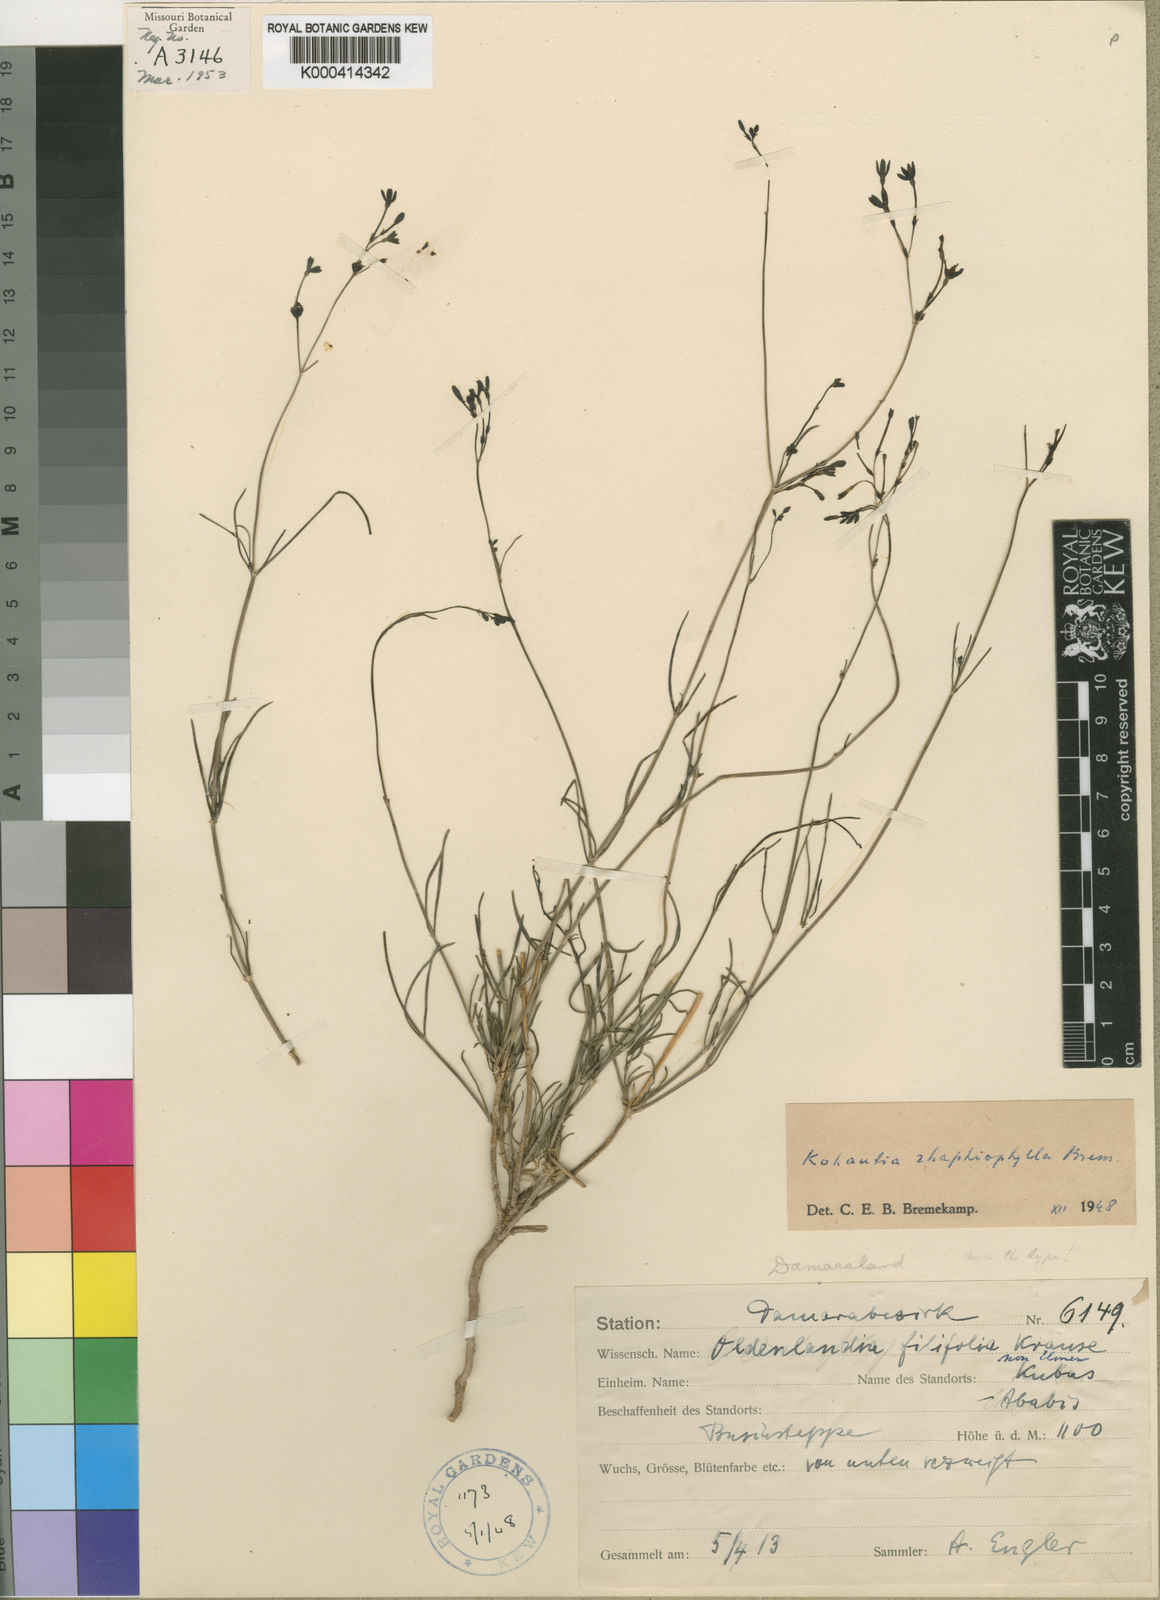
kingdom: Plantae
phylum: Tracheophyta
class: Magnoliopsida
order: Gentianales
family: Rubiaceae
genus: Kohautia
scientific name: Kohautia cynanchica
